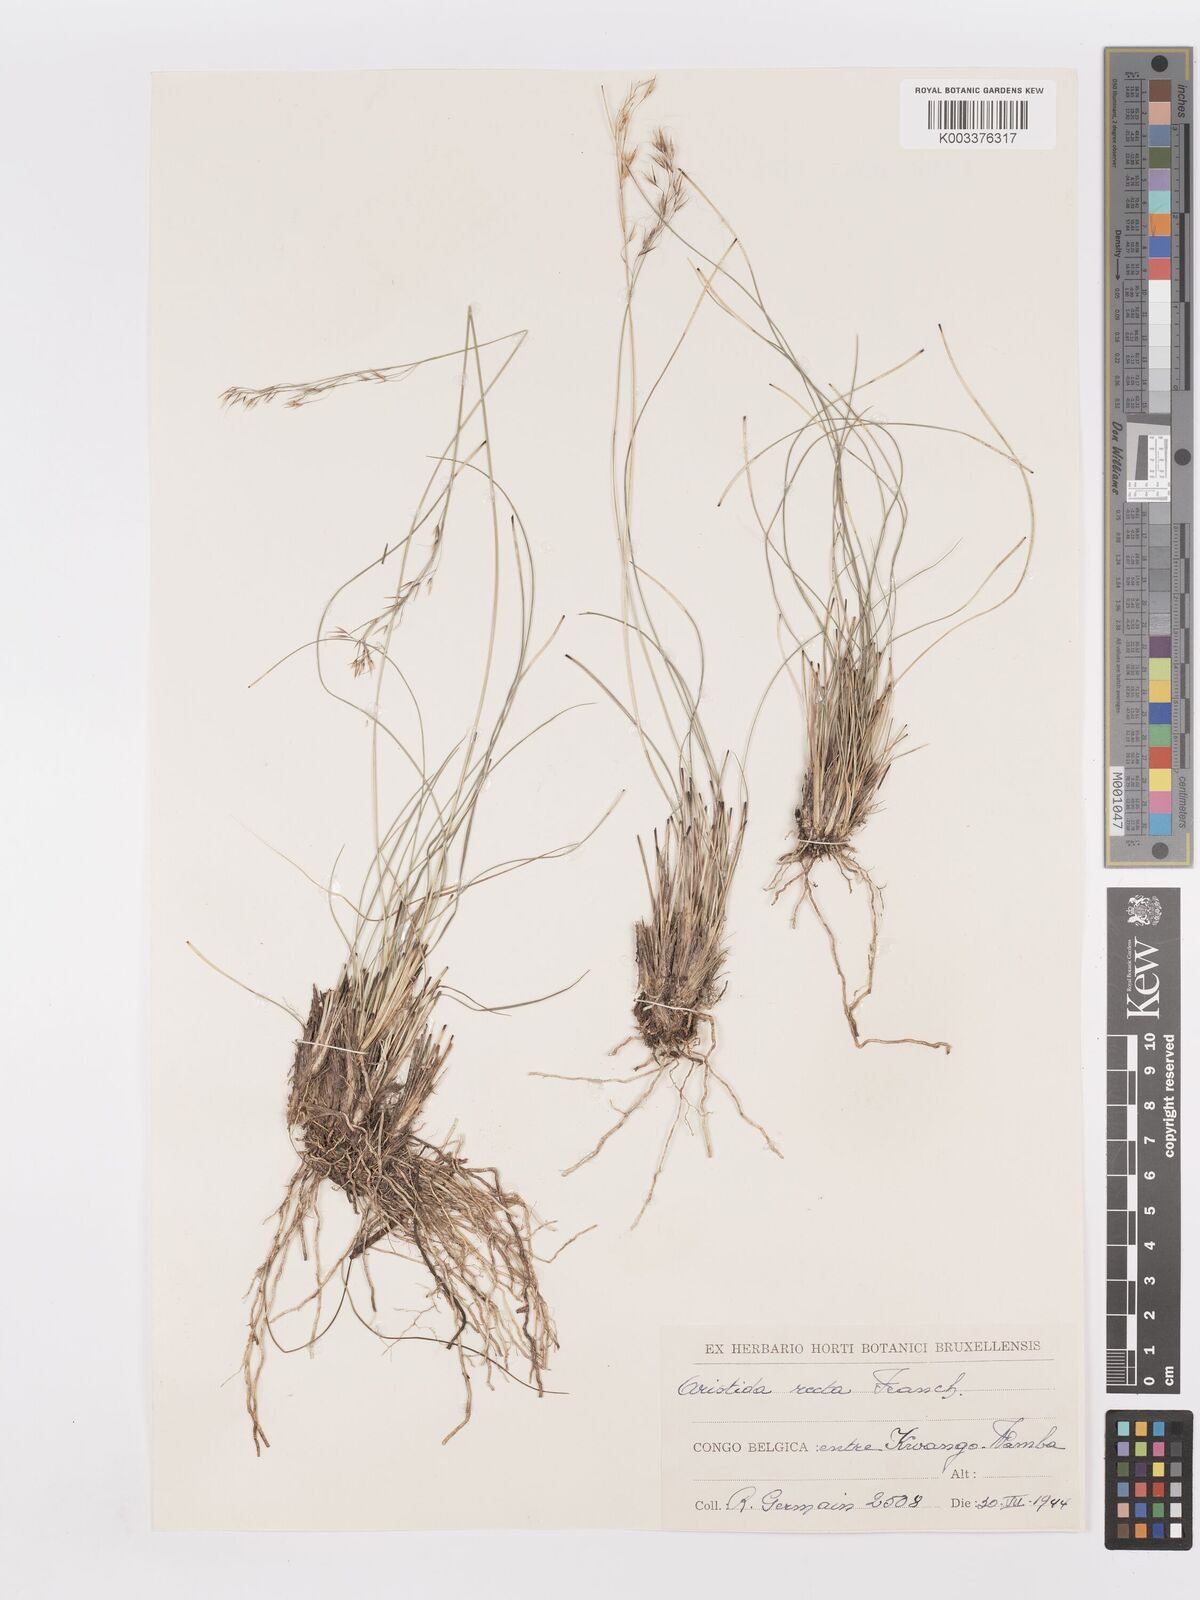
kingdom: Plantae
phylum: Tracheophyta
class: Liliopsida
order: Poales
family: Poaceae
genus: Aristida
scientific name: Aristida recta
